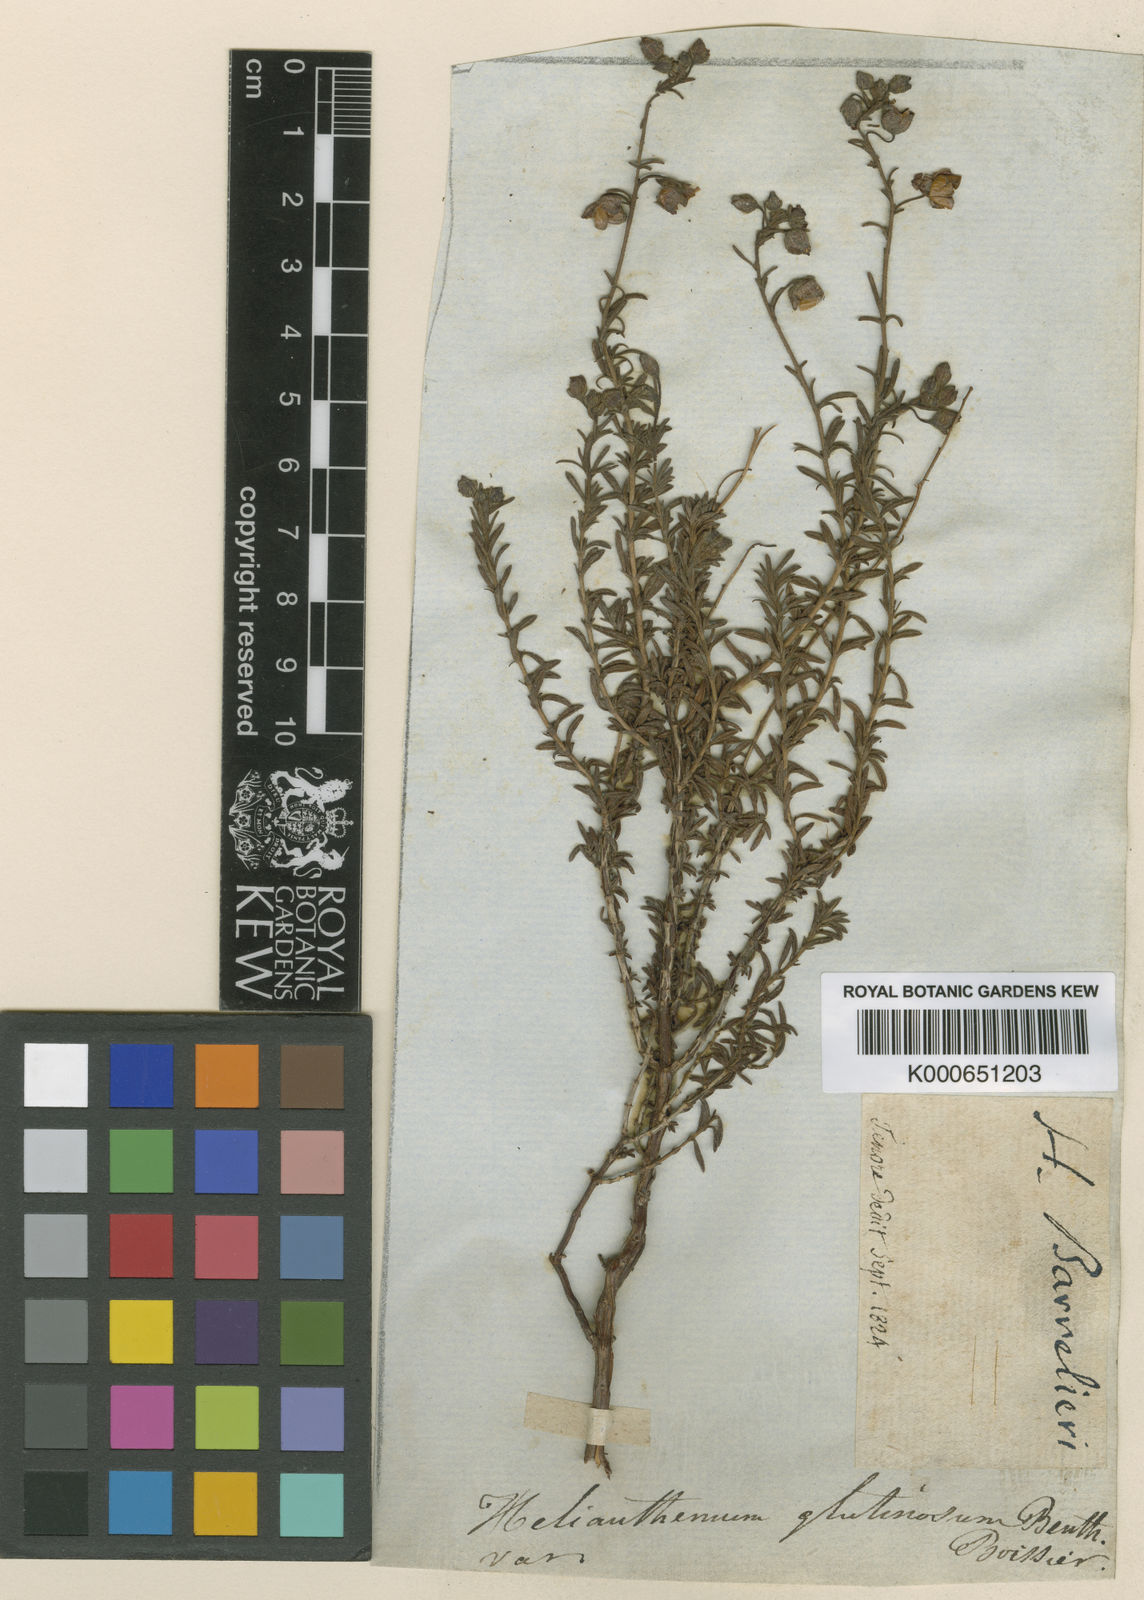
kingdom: Plantae
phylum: Tracheophyta
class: Magnoliopsida
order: Malvales
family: Cistaceae
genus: Fumana
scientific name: Fumana
